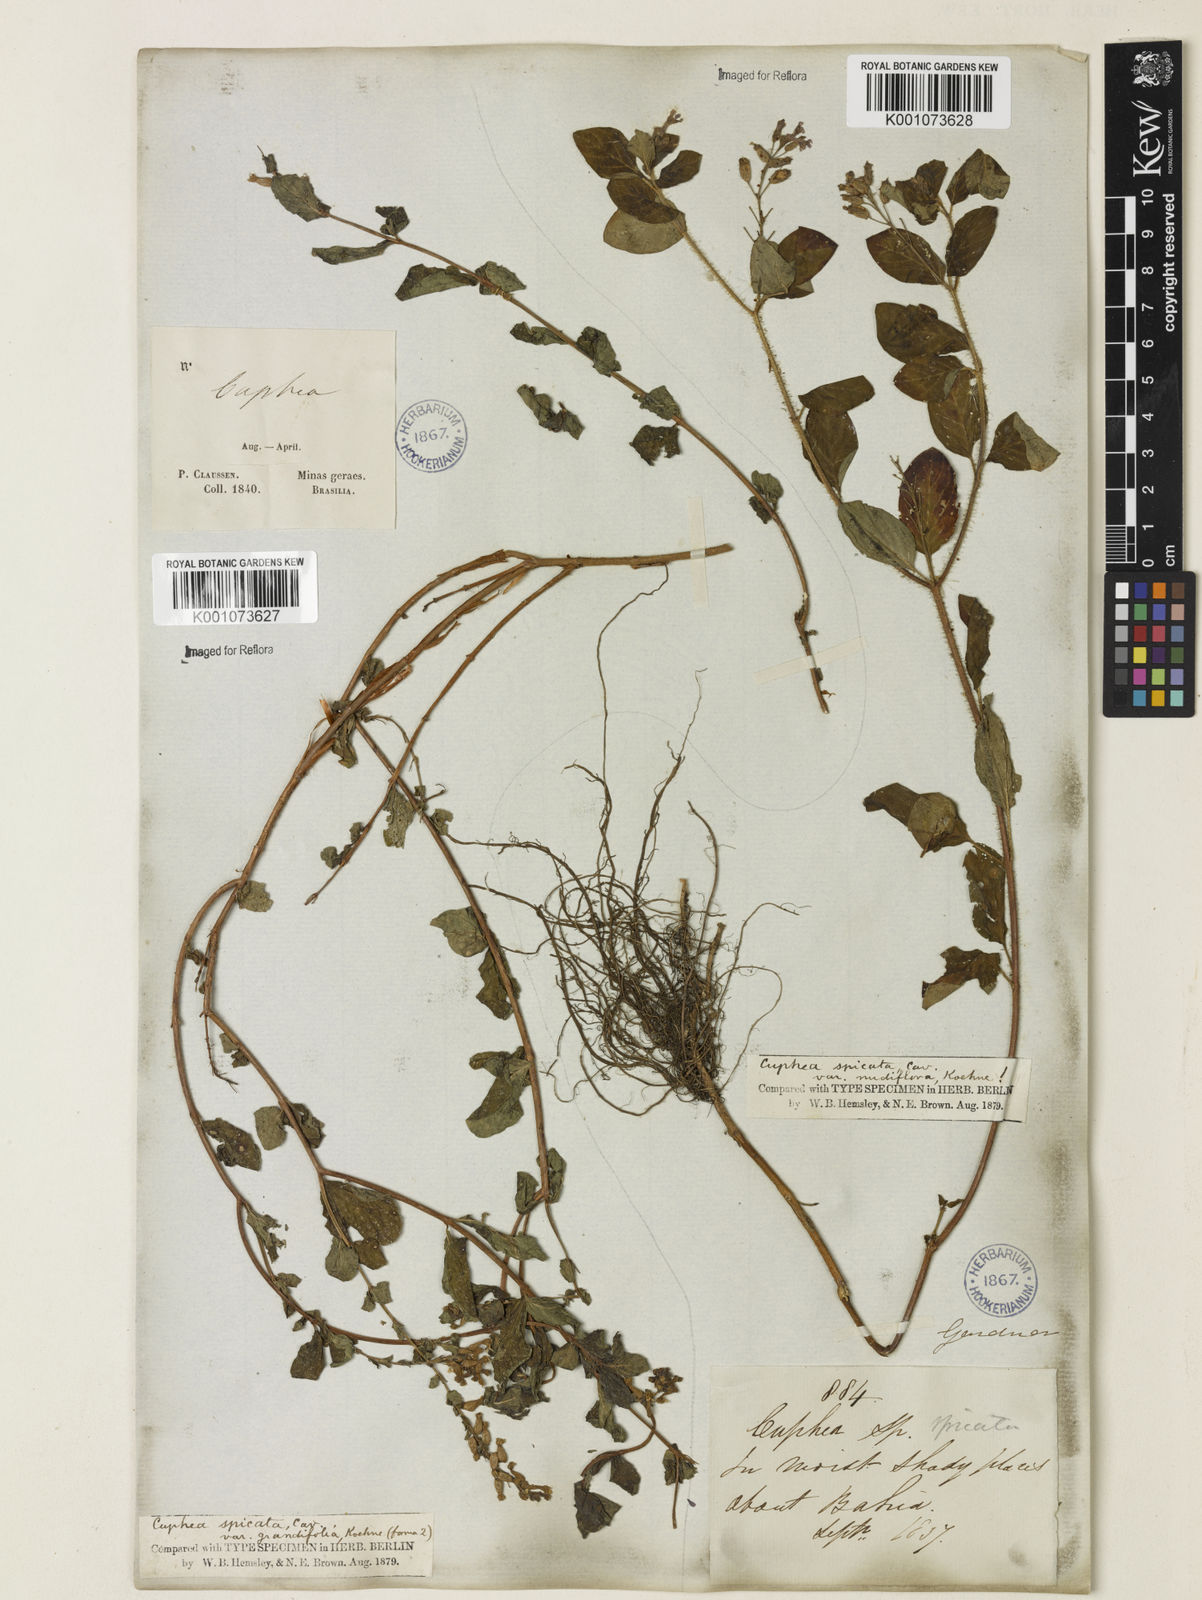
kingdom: Plantae
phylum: Tracheophyta
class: Magnoliopsida
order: Myrtales
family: Lythraceae
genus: Cuphea
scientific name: Cuphea racemosa
